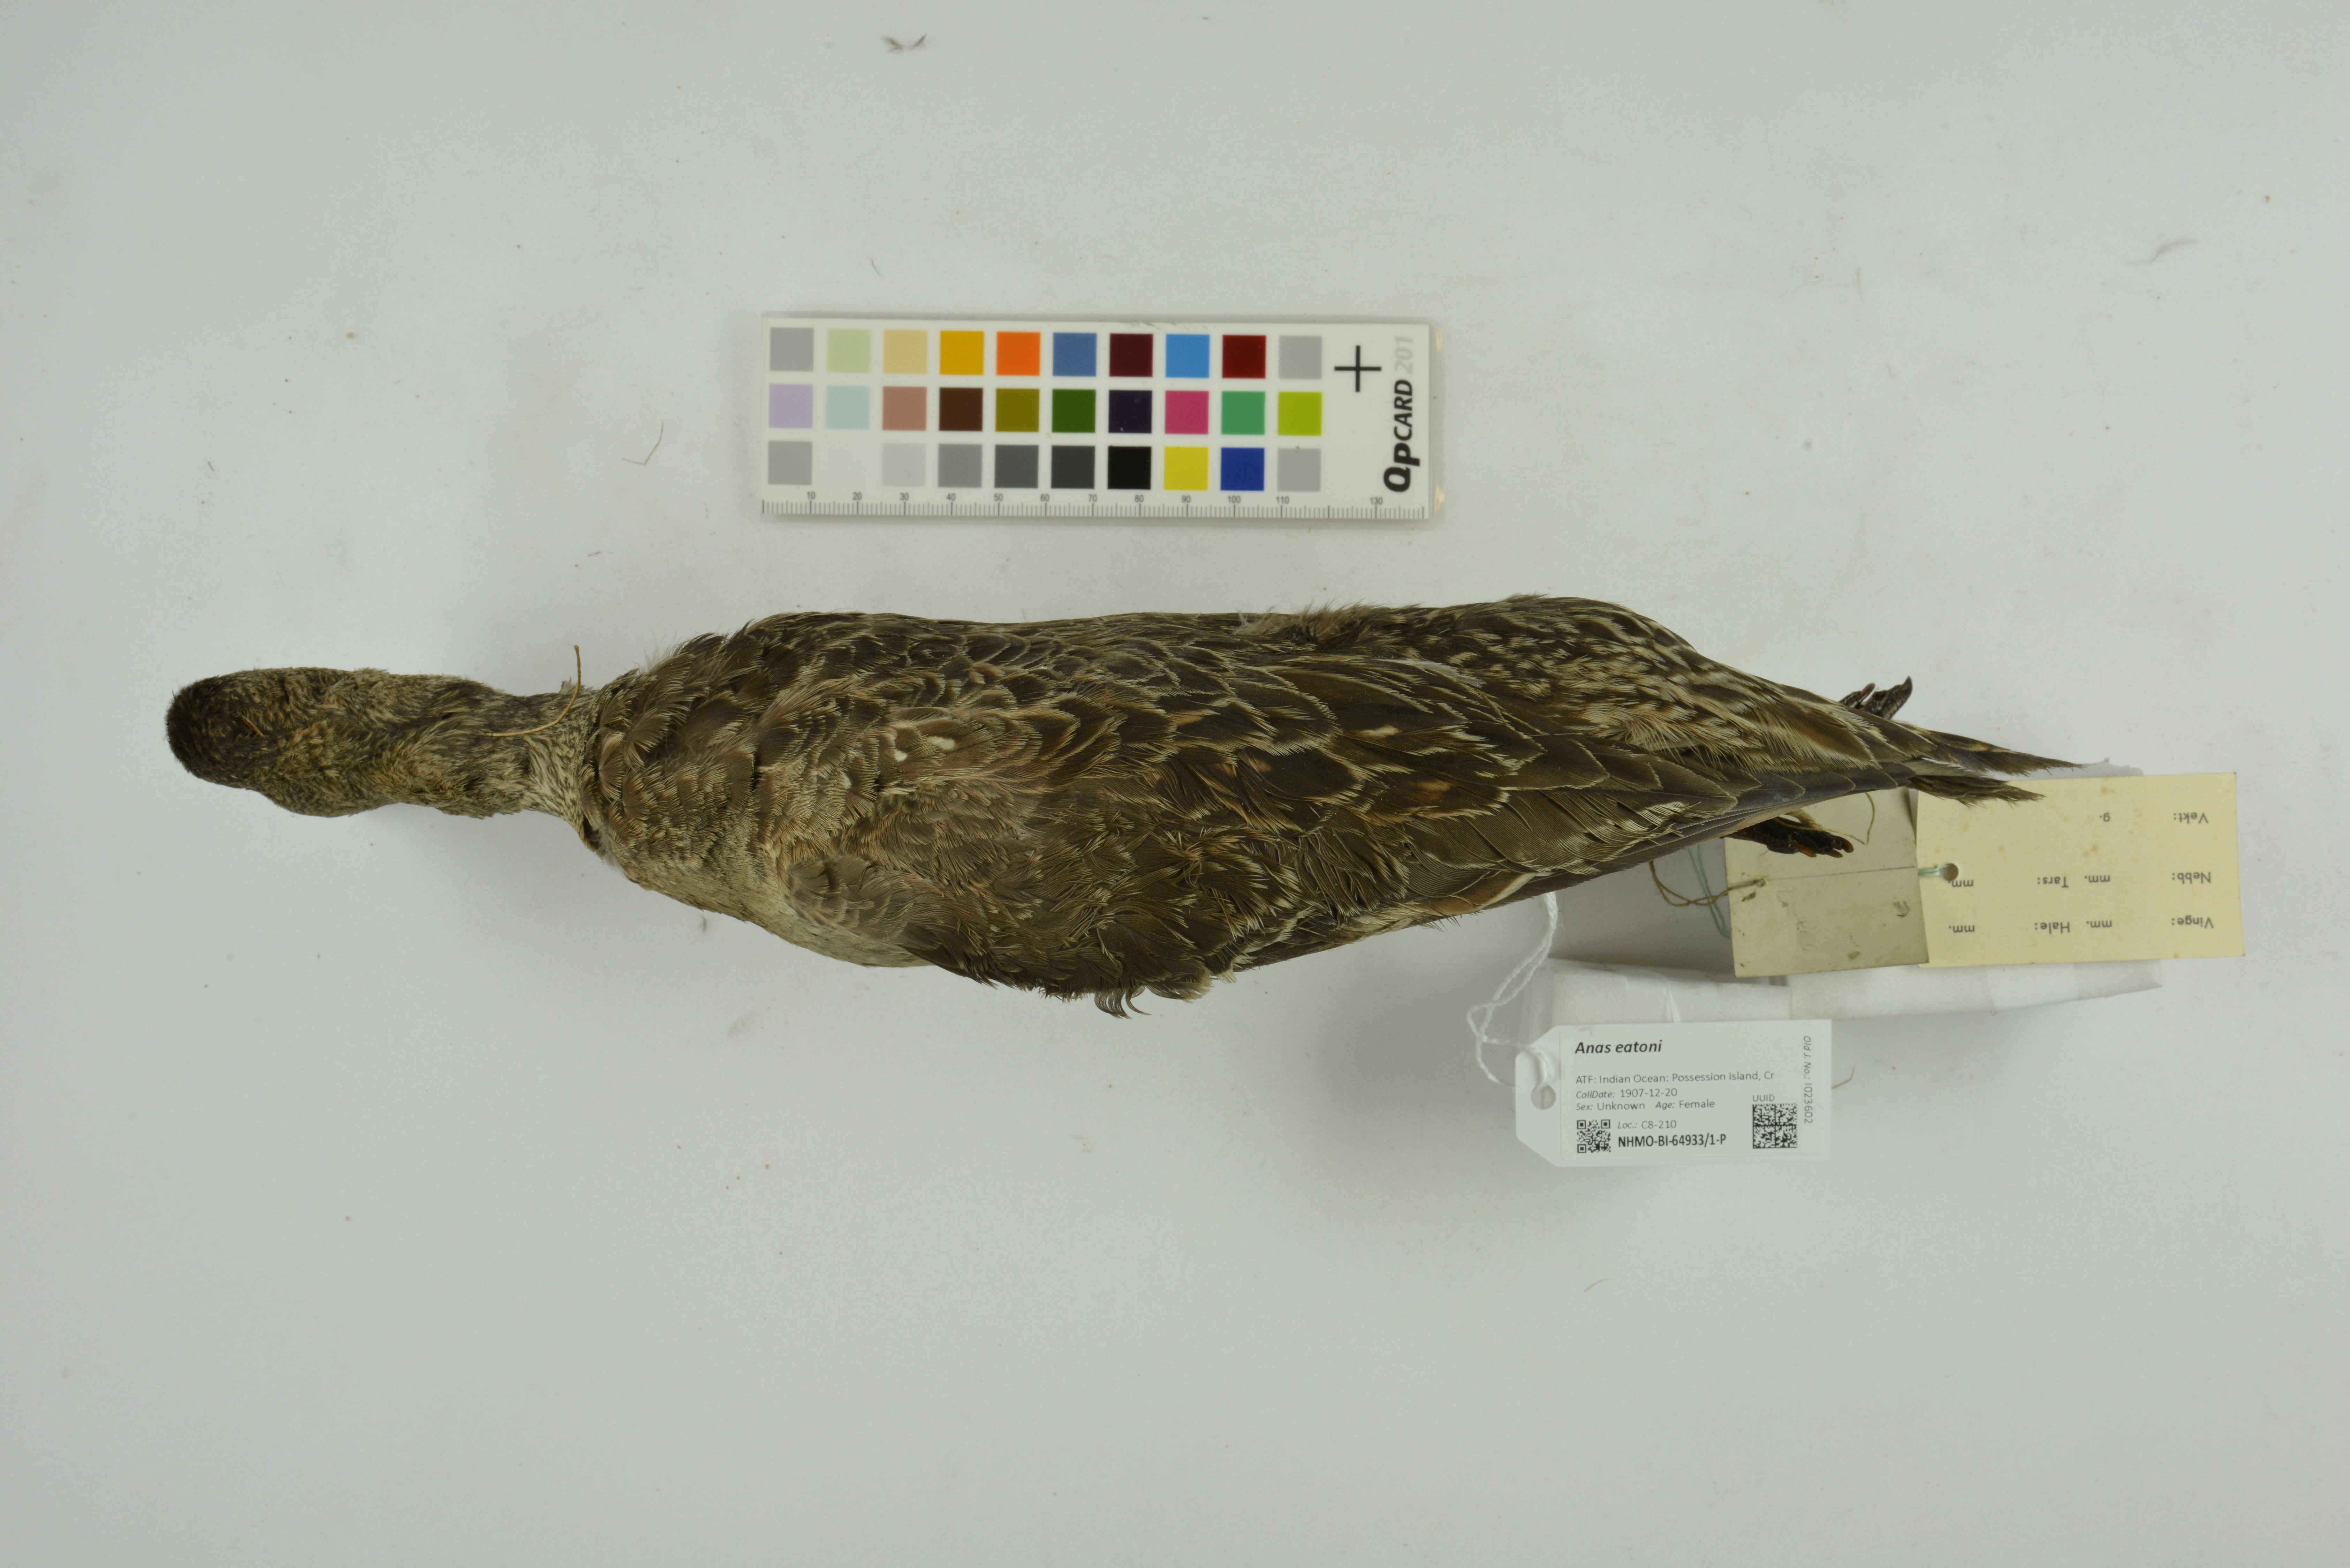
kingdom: Animalia
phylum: Chordata
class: Aves
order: Anseriformes
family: Anatidae
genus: Anas
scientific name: Anas eatoni
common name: Eaton's pintail
